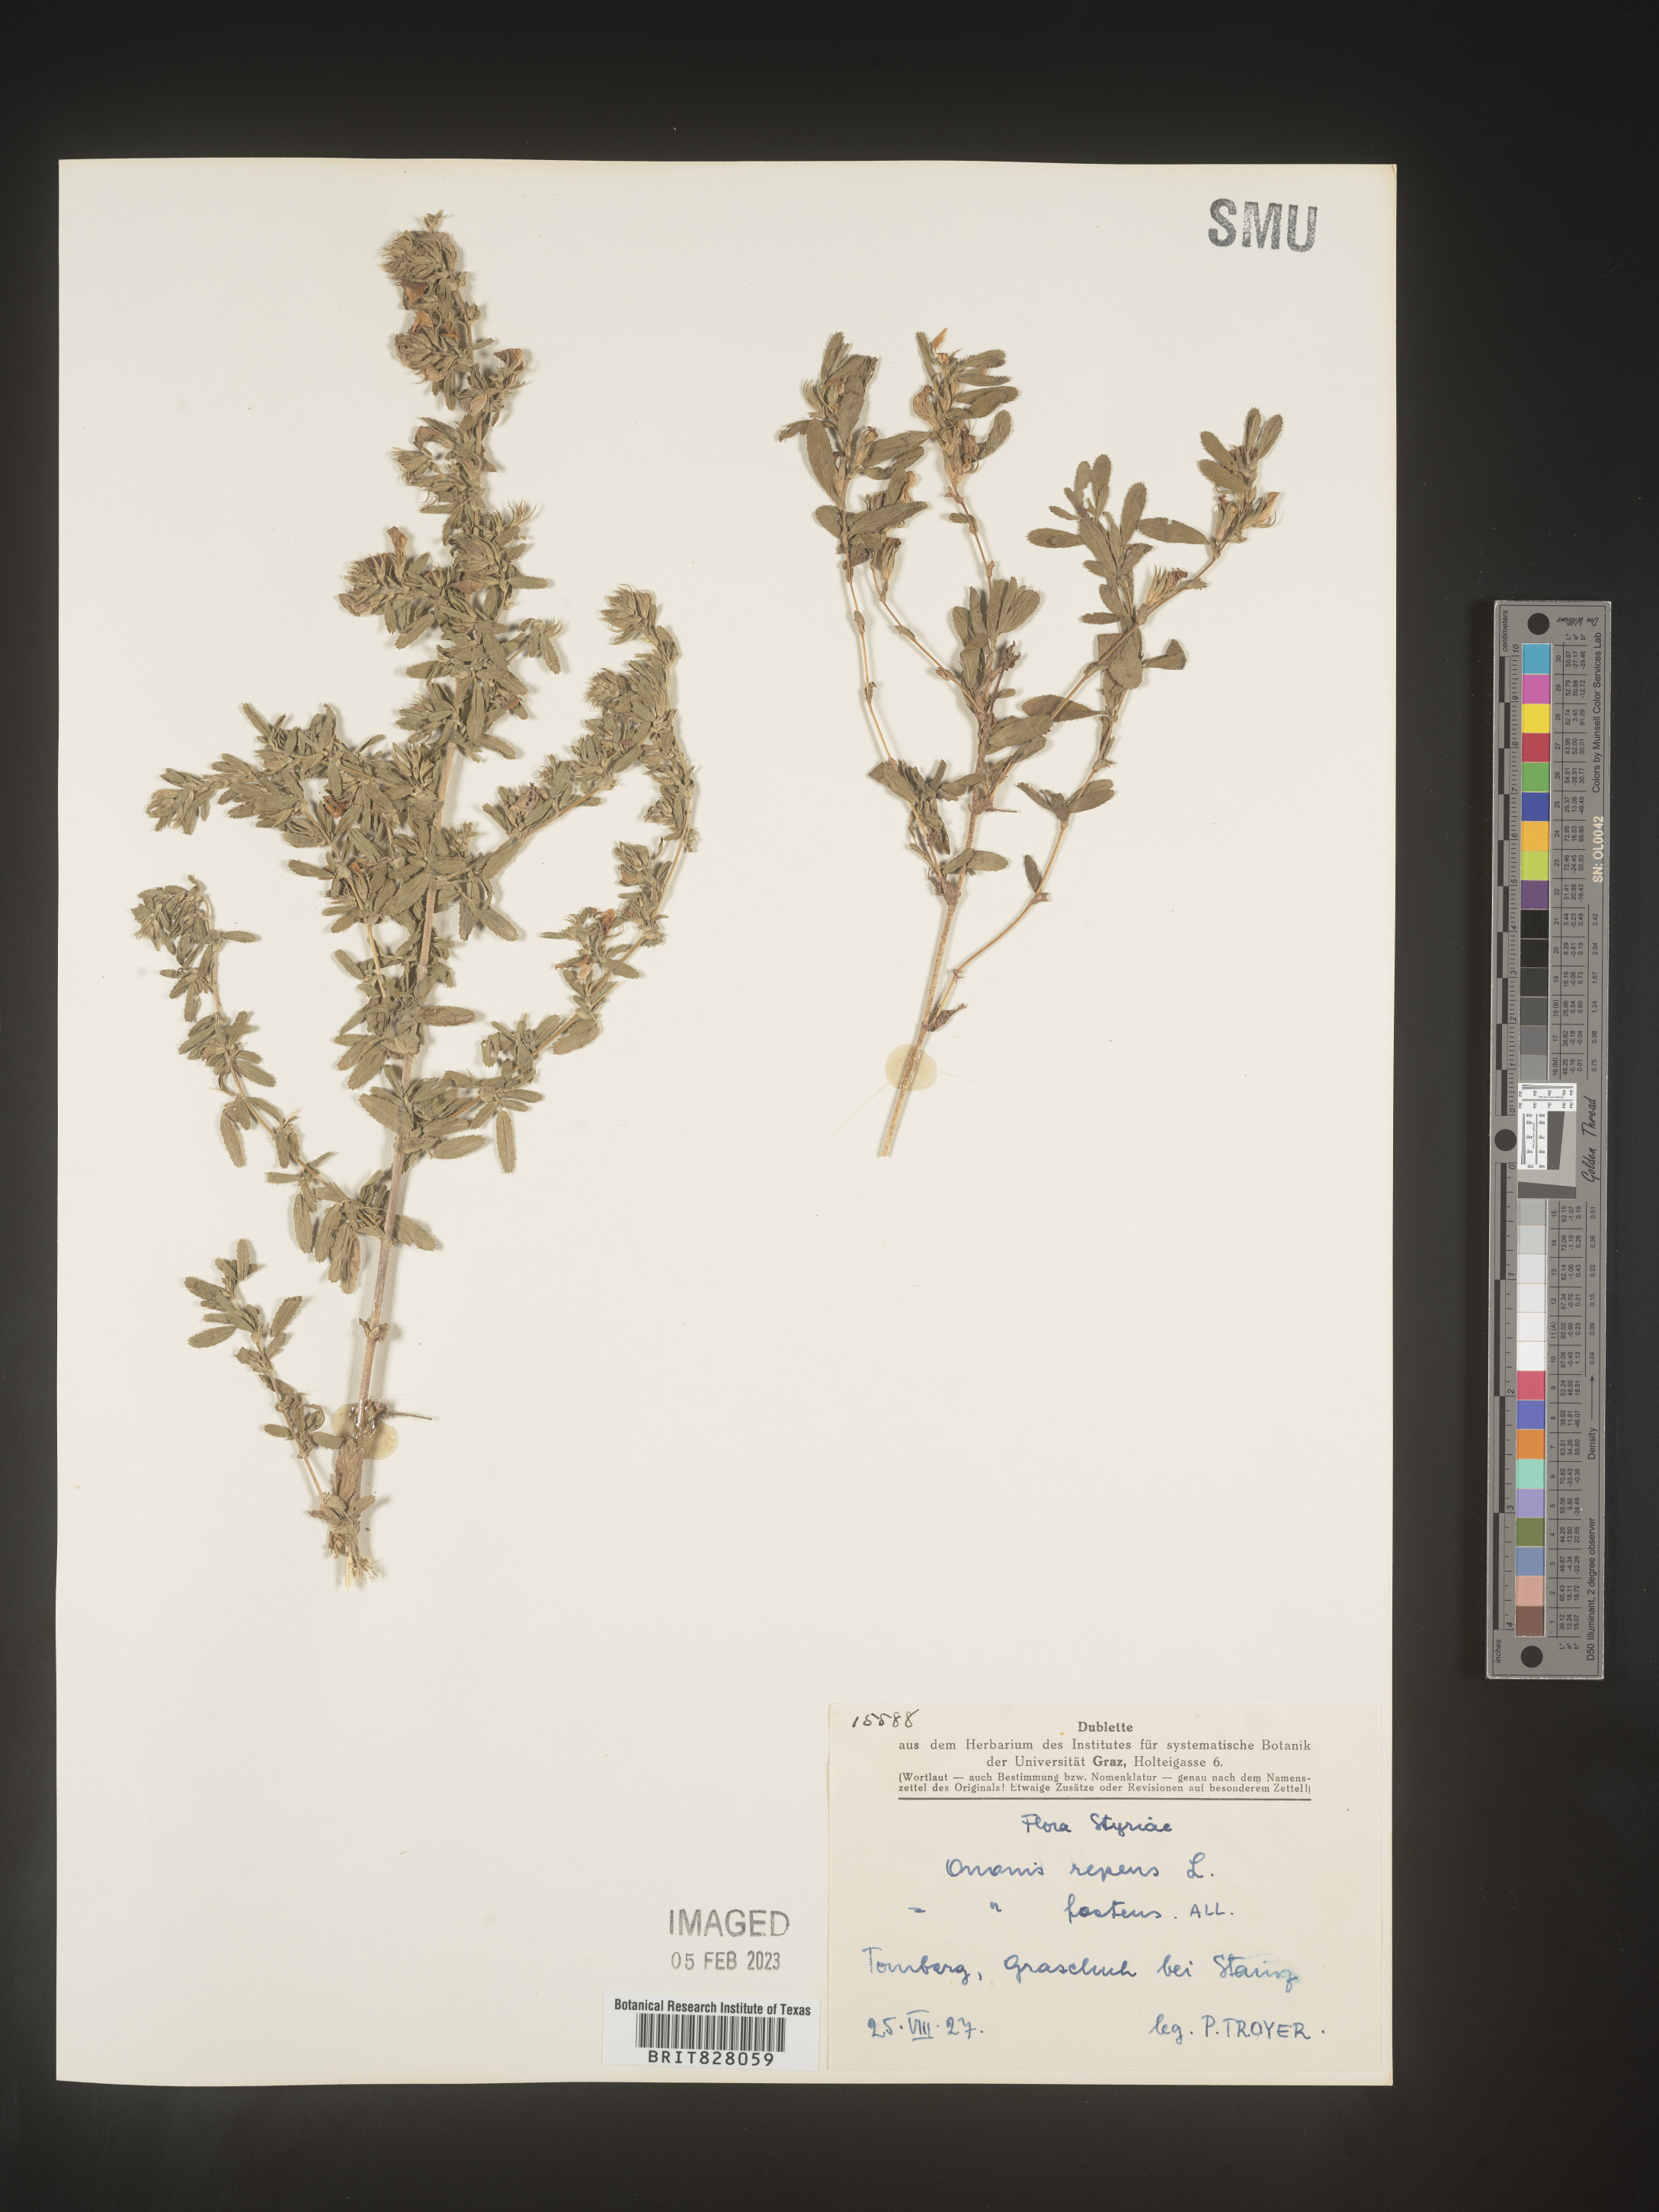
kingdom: Plantae
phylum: Tracheophyta
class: Magnoliopsida
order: Fabales
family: Fabaceae
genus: Ononis
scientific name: Ononis
